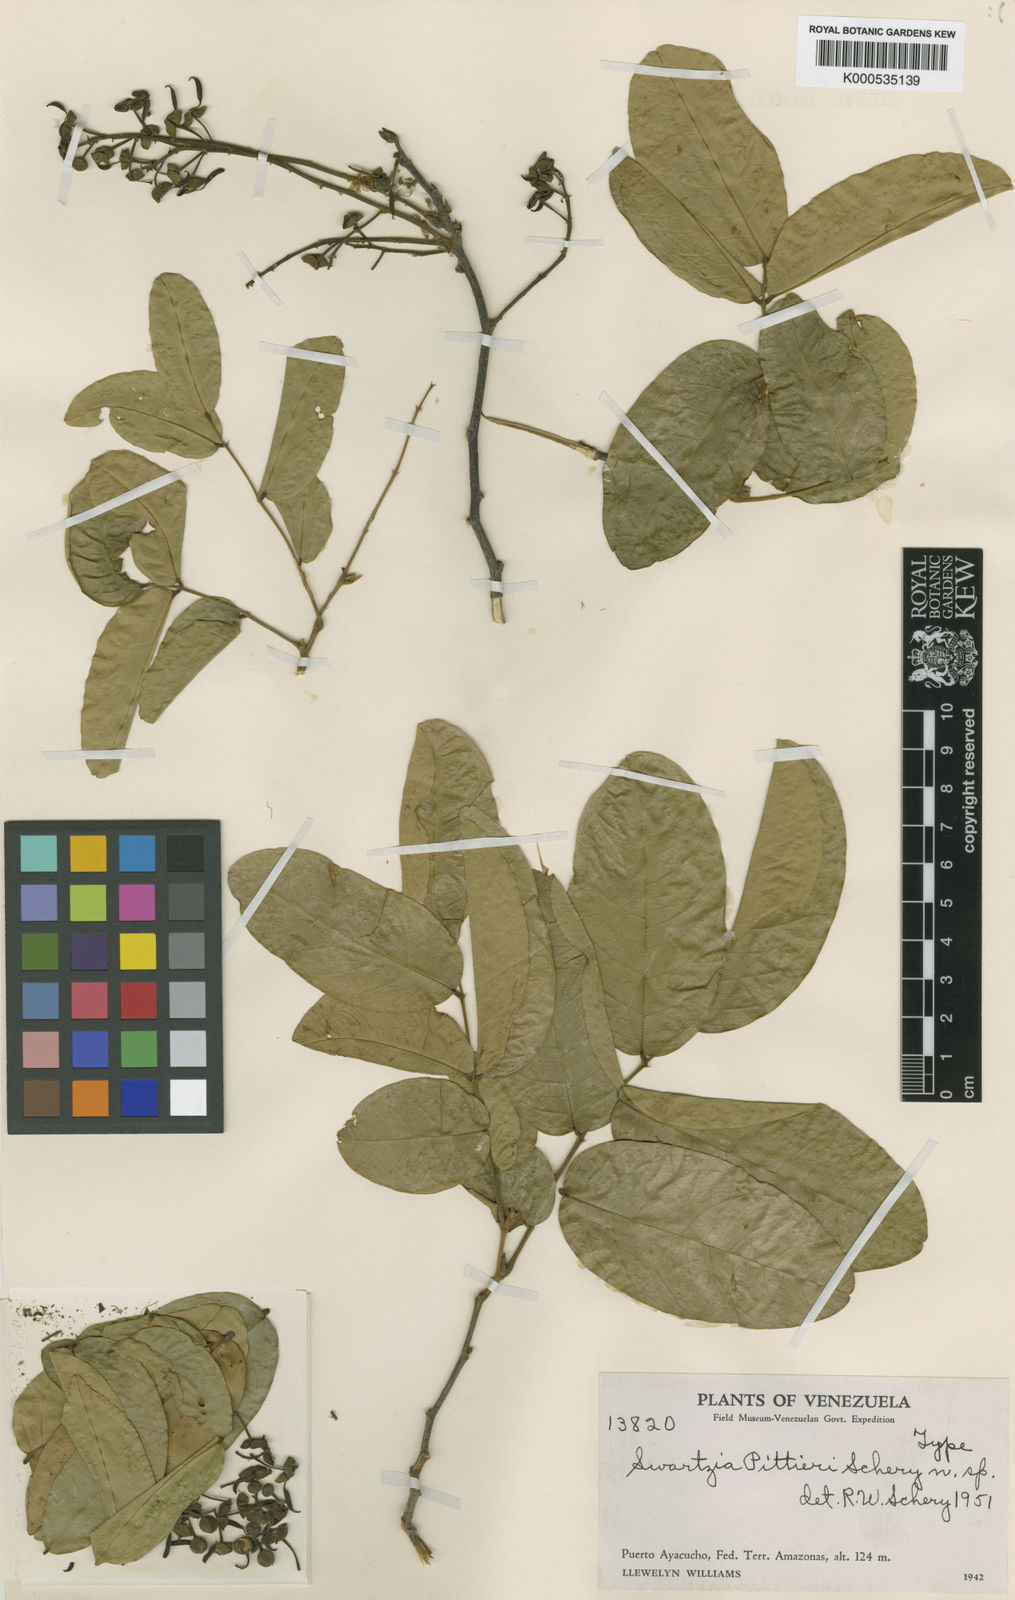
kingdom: Plantae
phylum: Tracheophyta
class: Magnoliopsida
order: Fabales
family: Fabaceae
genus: Swartzia
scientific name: Swartzia pittieri
